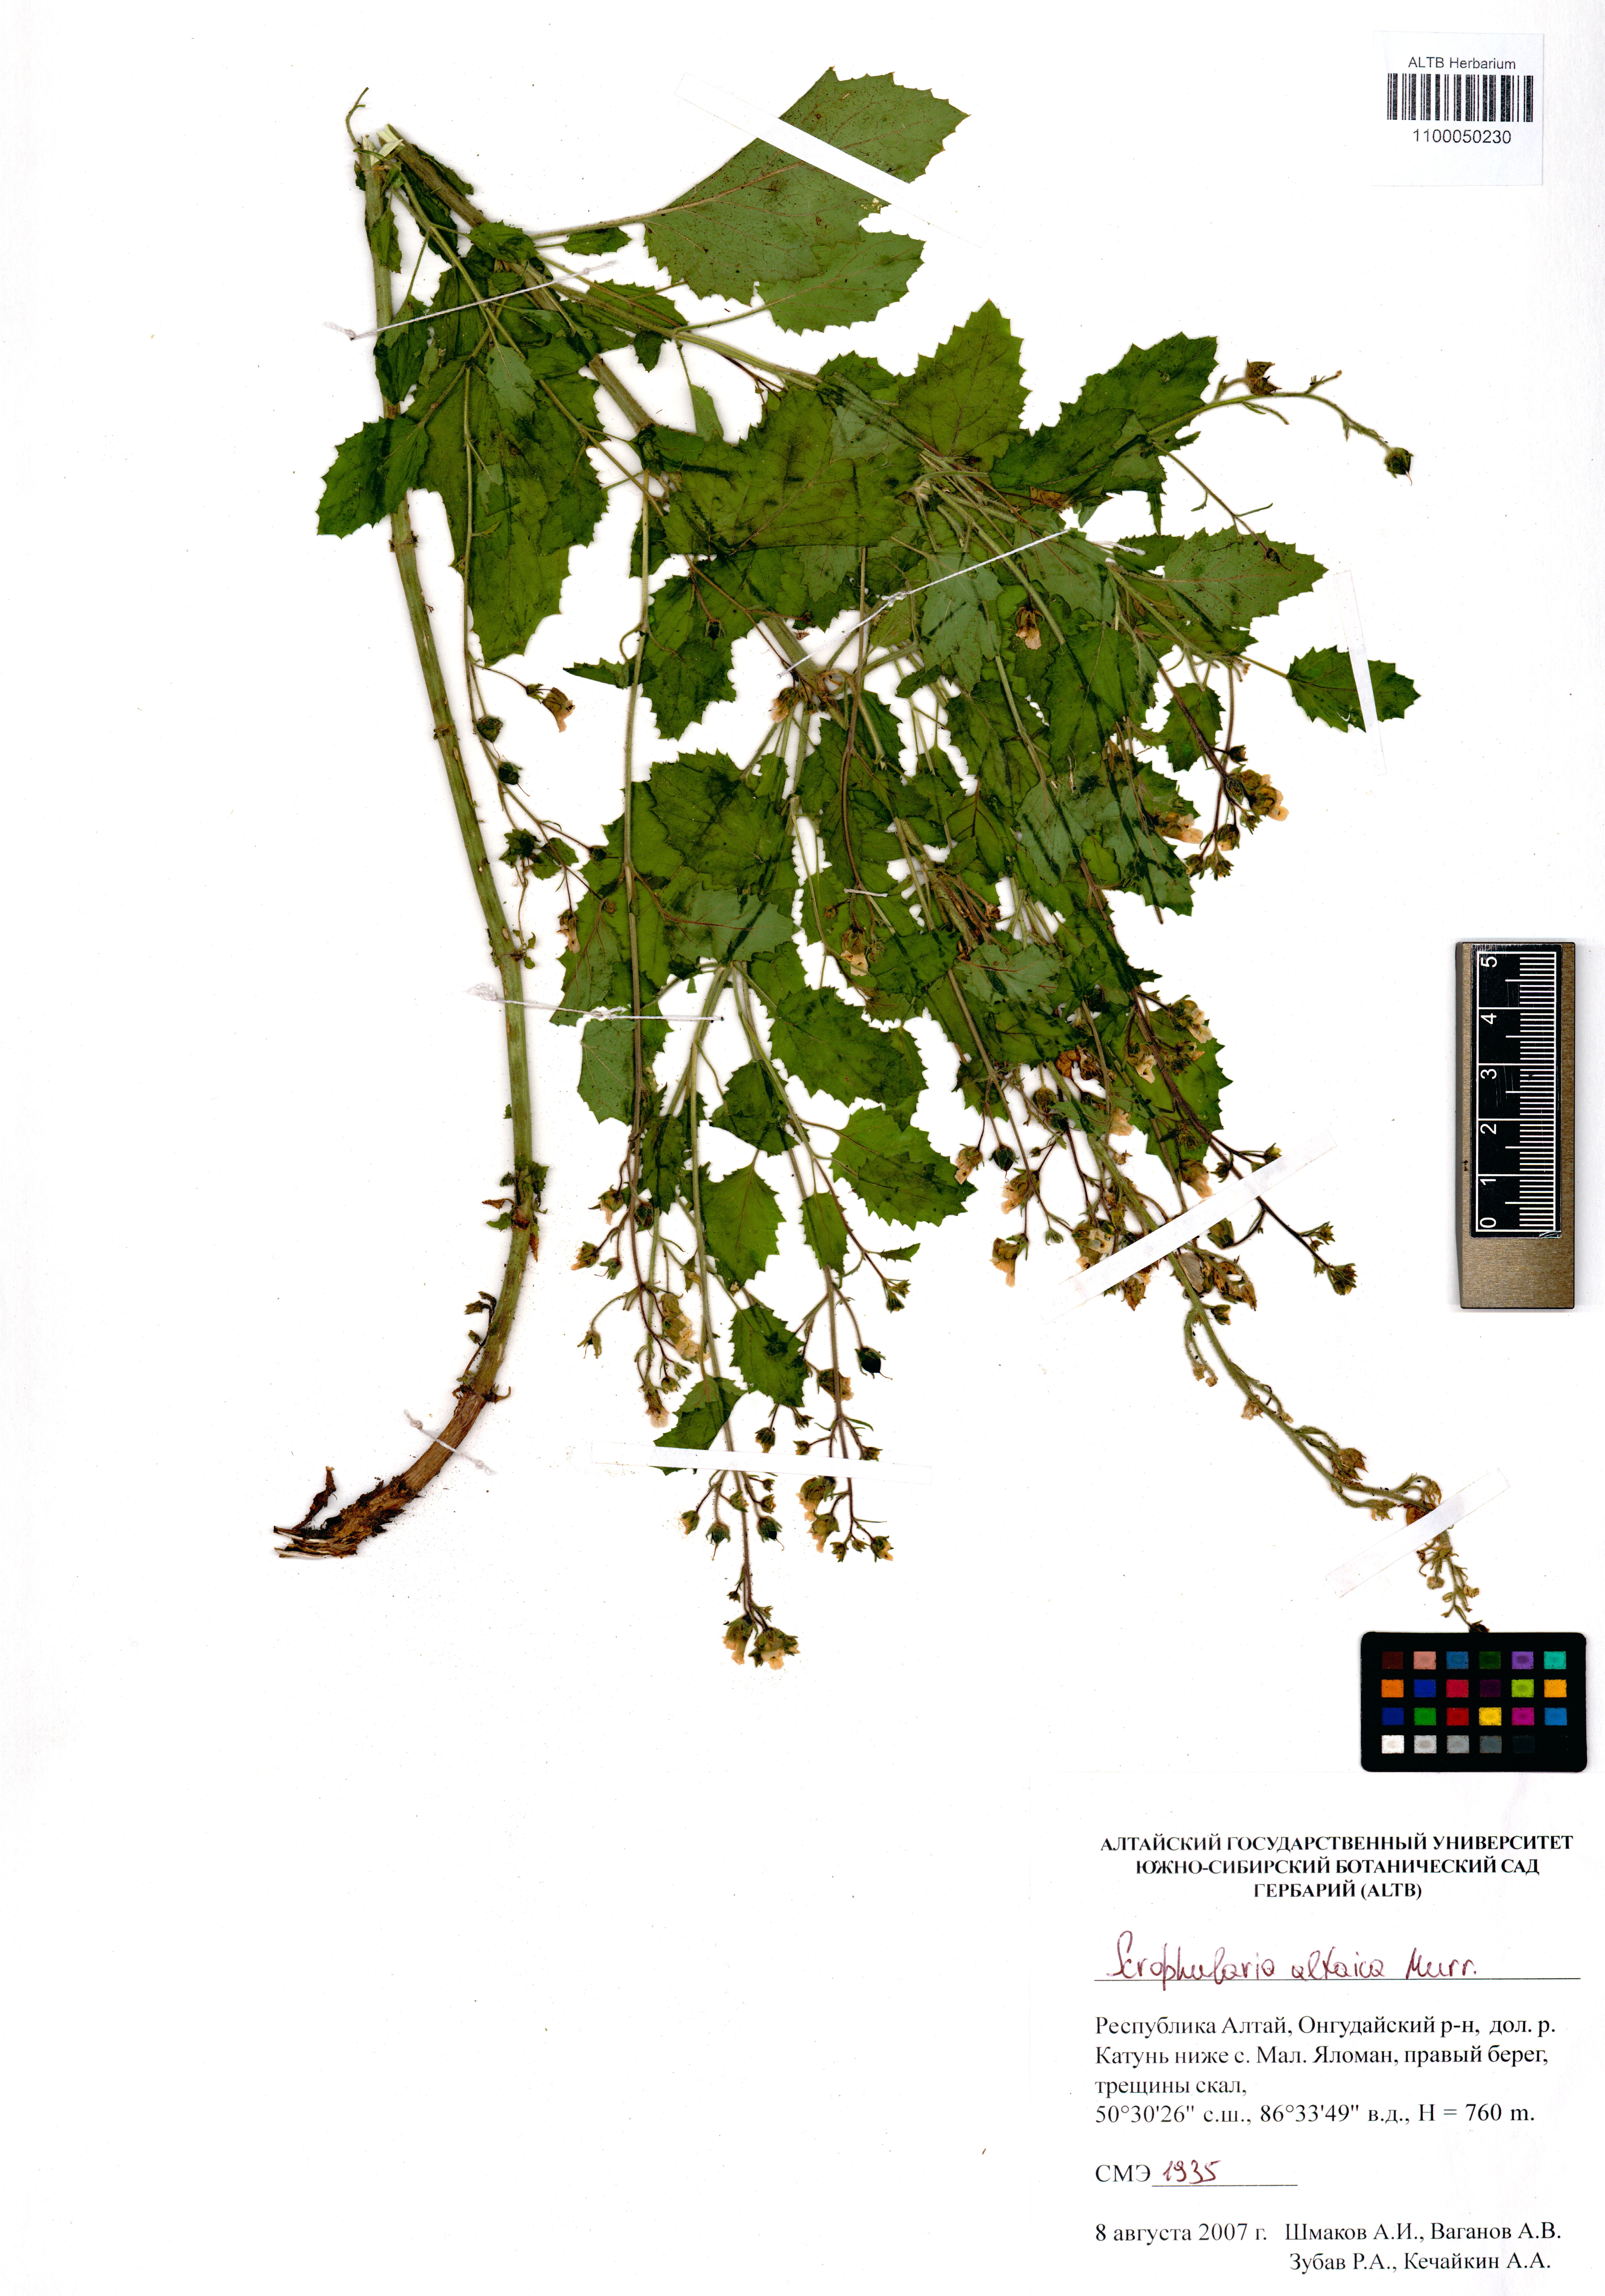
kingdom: Plantae
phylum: Tracheophyta
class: Magnoliopsida
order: Lamiales
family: Scrophulariaceae
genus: Scrophularia
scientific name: Scrophularia altaica
